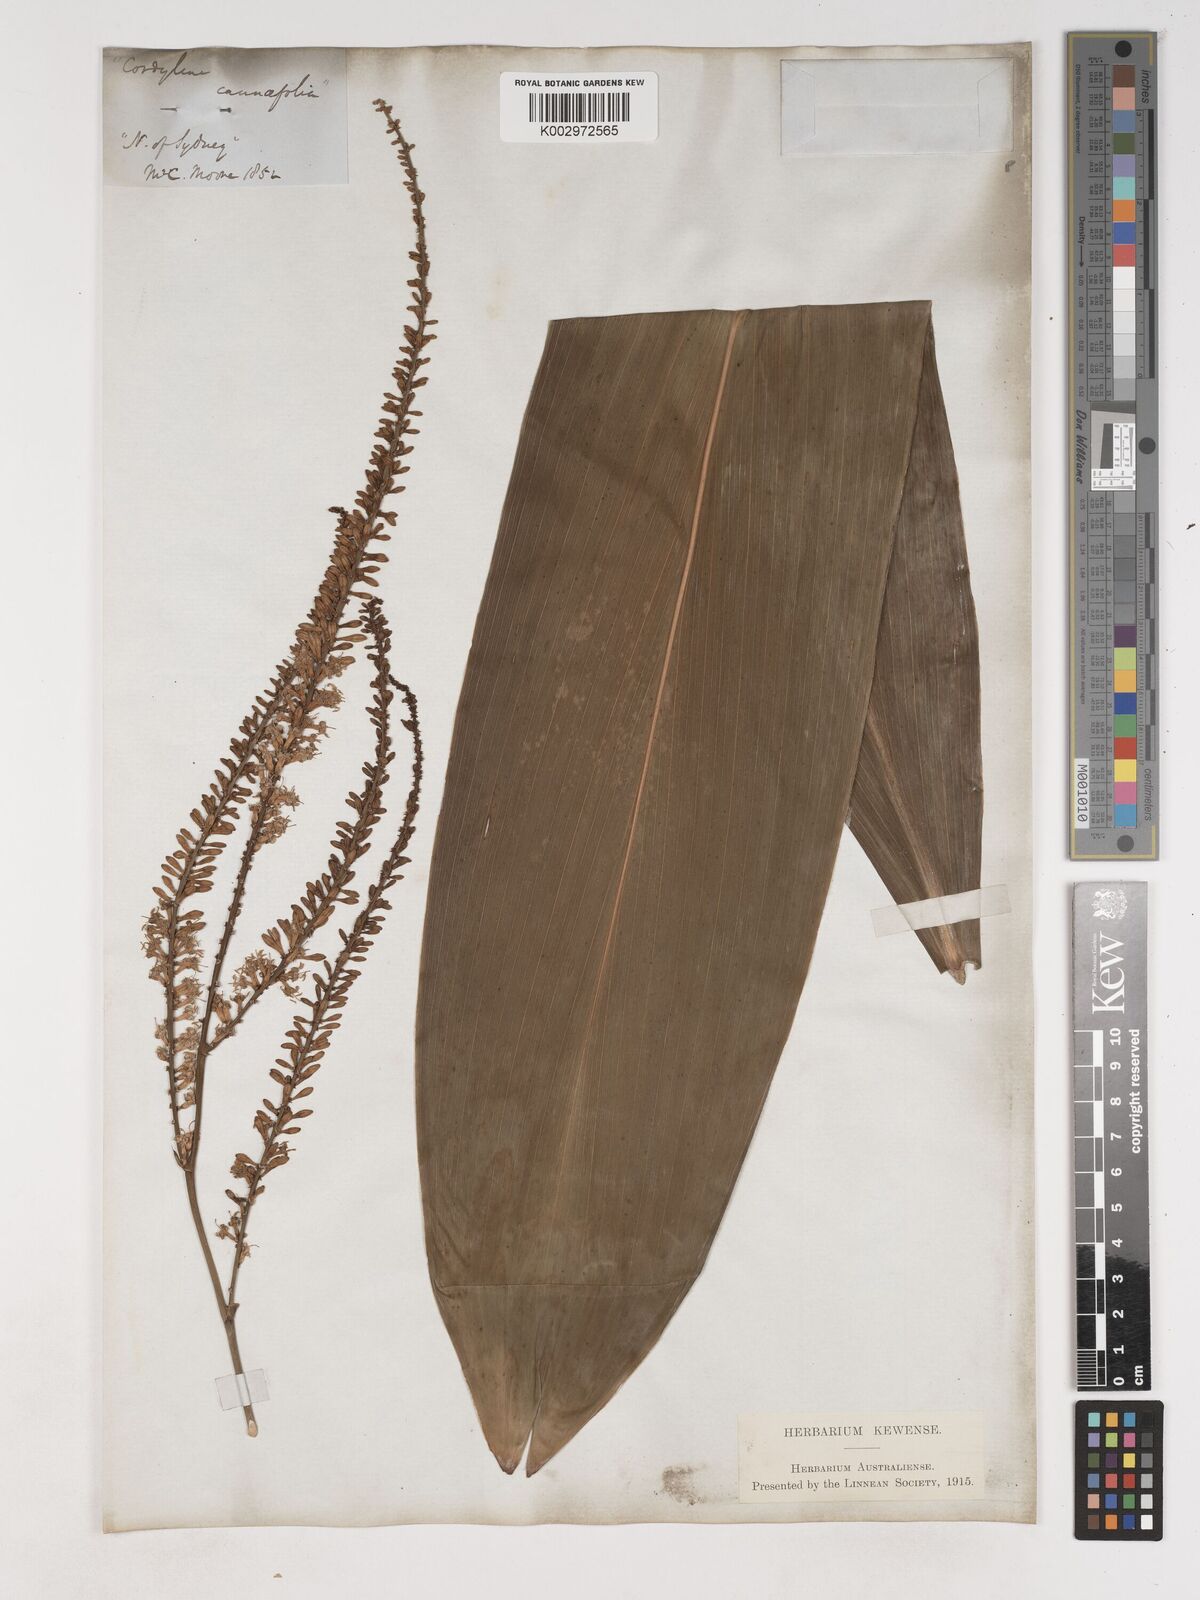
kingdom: Plantae
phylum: Tracheophyta
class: Liliopsida
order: Asparagales
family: Asparagaceae
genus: Cordyline
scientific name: Cordyline fruticosa
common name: Good-luck-plant
